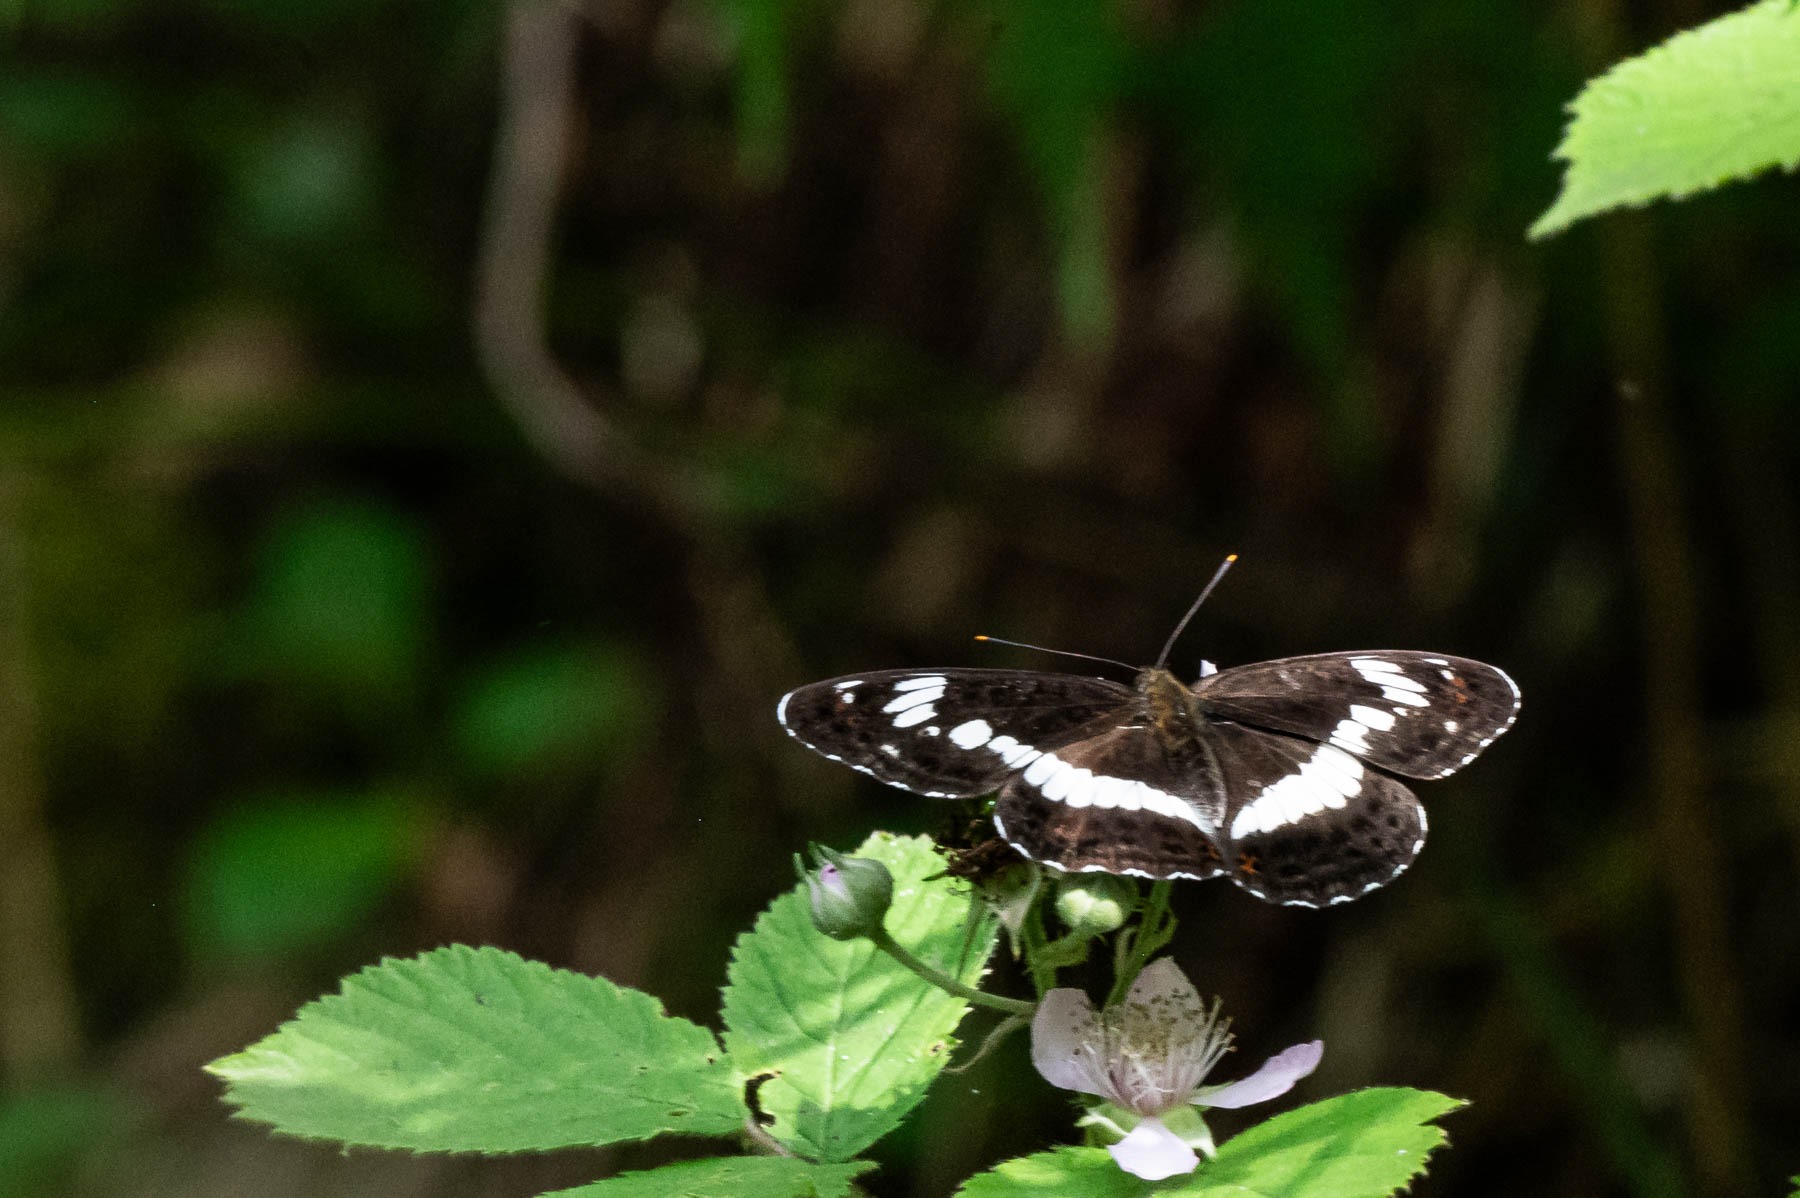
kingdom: Animalia
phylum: Arthropoda
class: Insecta
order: Lepidoptera
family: Nymphalidae
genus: Ladoga
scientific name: Ladoga camilla
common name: Hvid admiral
